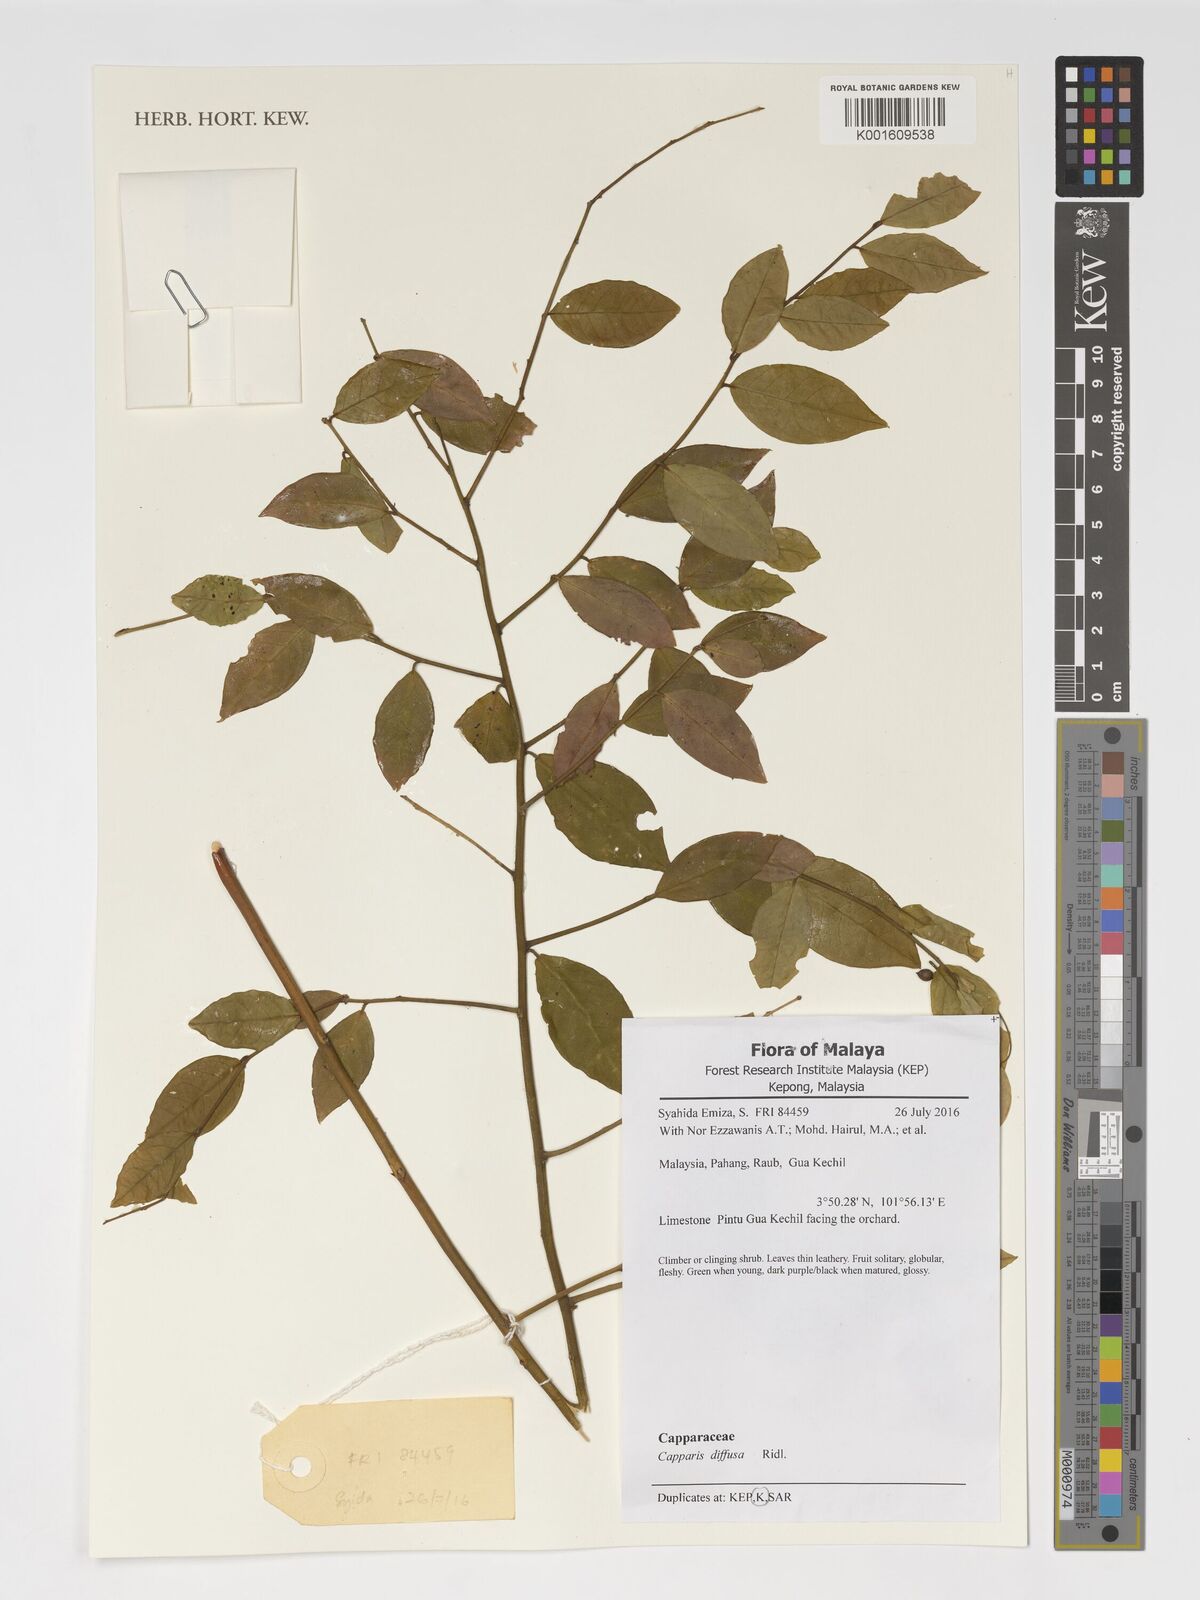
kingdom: Plantae
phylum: Tracheophyta
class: Magnoliopsida
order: Brassicales
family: Capparaceae
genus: Capparis
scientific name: Capparis diffusa
